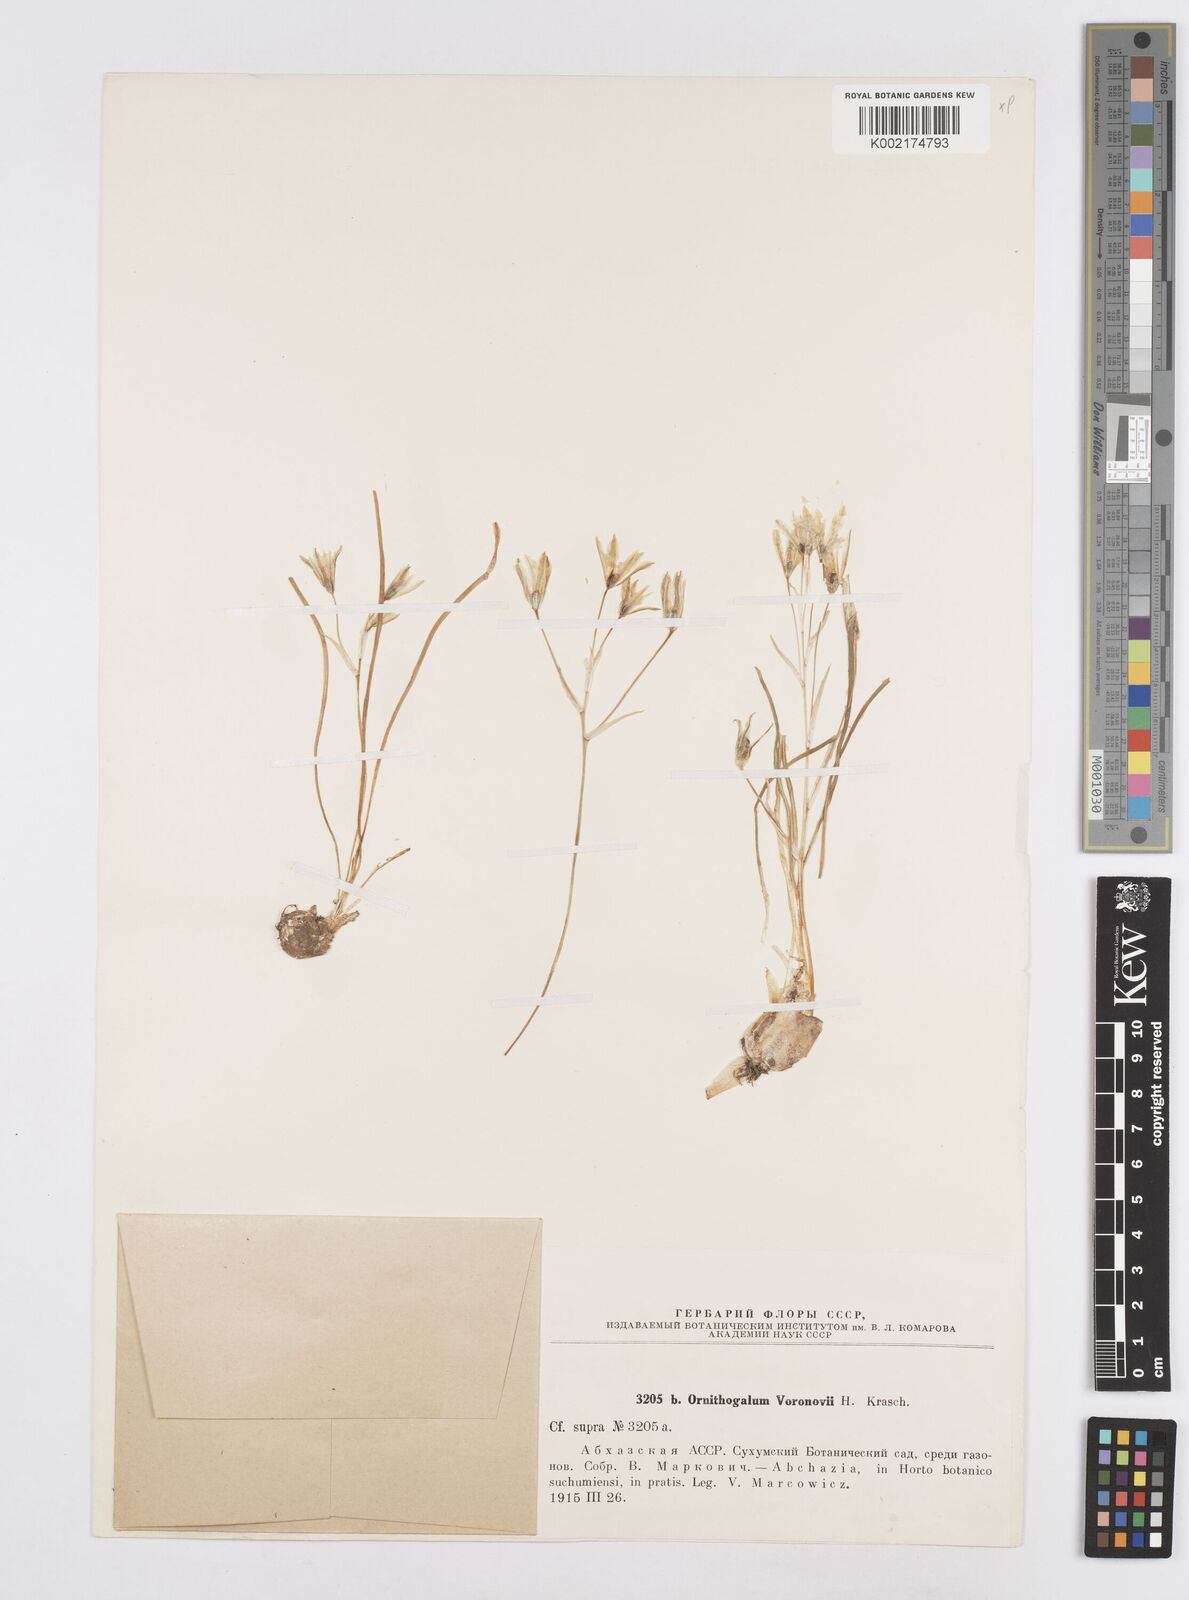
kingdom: Plantae
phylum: Tracheophyta
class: Liliopsida
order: Asparagales
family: Asparagaceae
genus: Ornithogalum
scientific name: Ornithogalum woronowii
